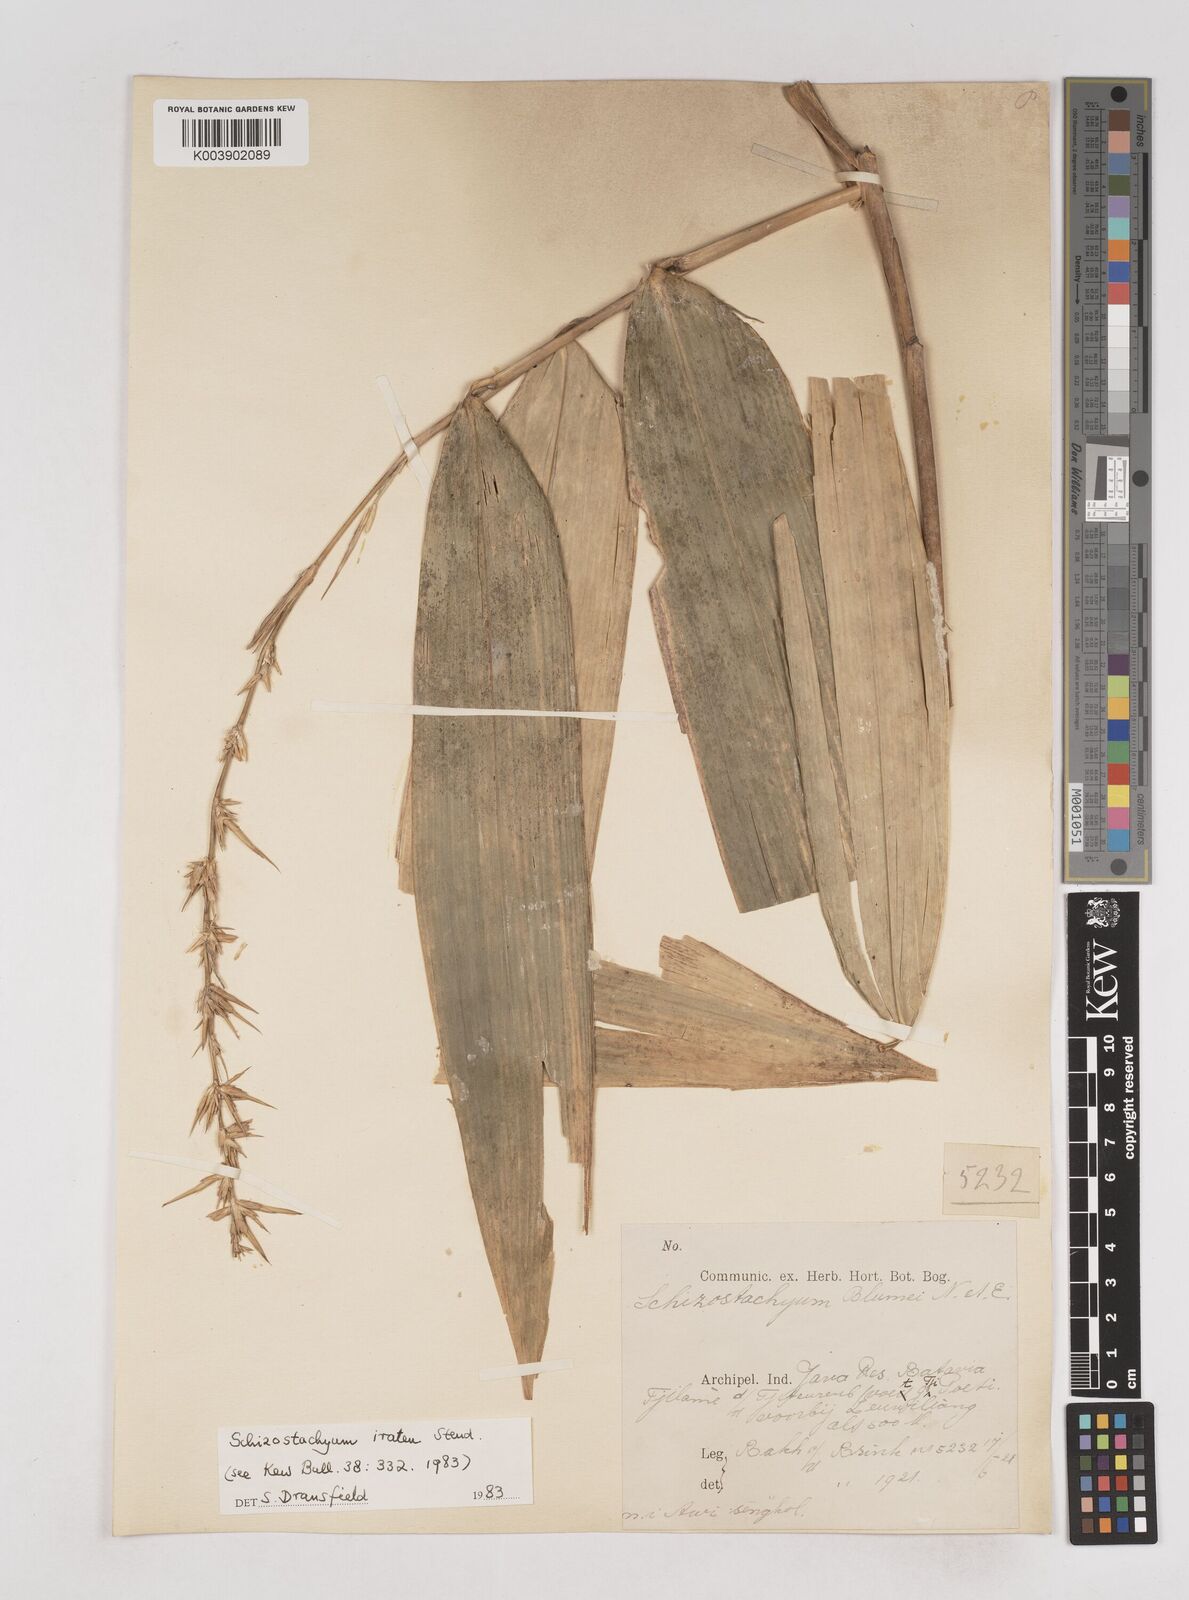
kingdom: Plantae
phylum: Tracheophyta
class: Liliopsida
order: Poales
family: Poaceae
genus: Schizostachyum
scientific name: Schizostachyum iraten
